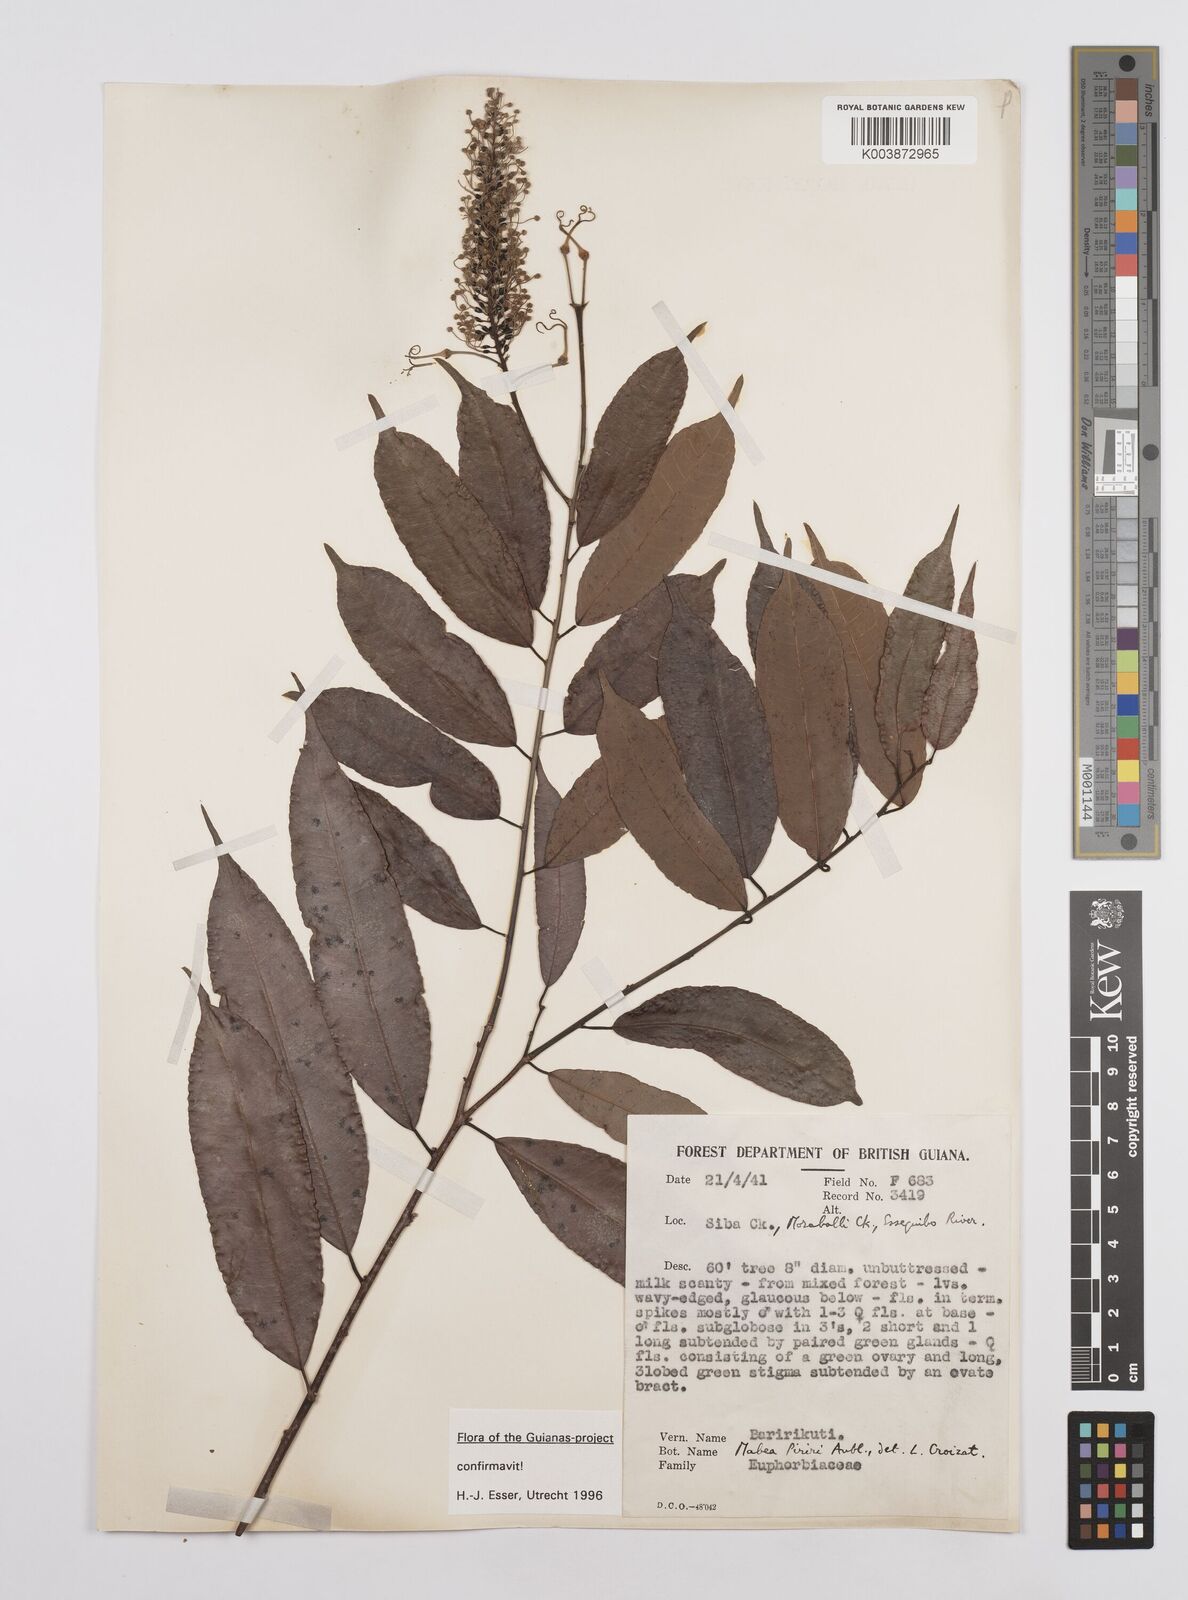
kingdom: Plantae
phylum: Tracheophyta
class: Magnoliopsida
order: Malpighiales
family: Euphorbiaceae
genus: Mabea
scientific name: Mabea piriri
